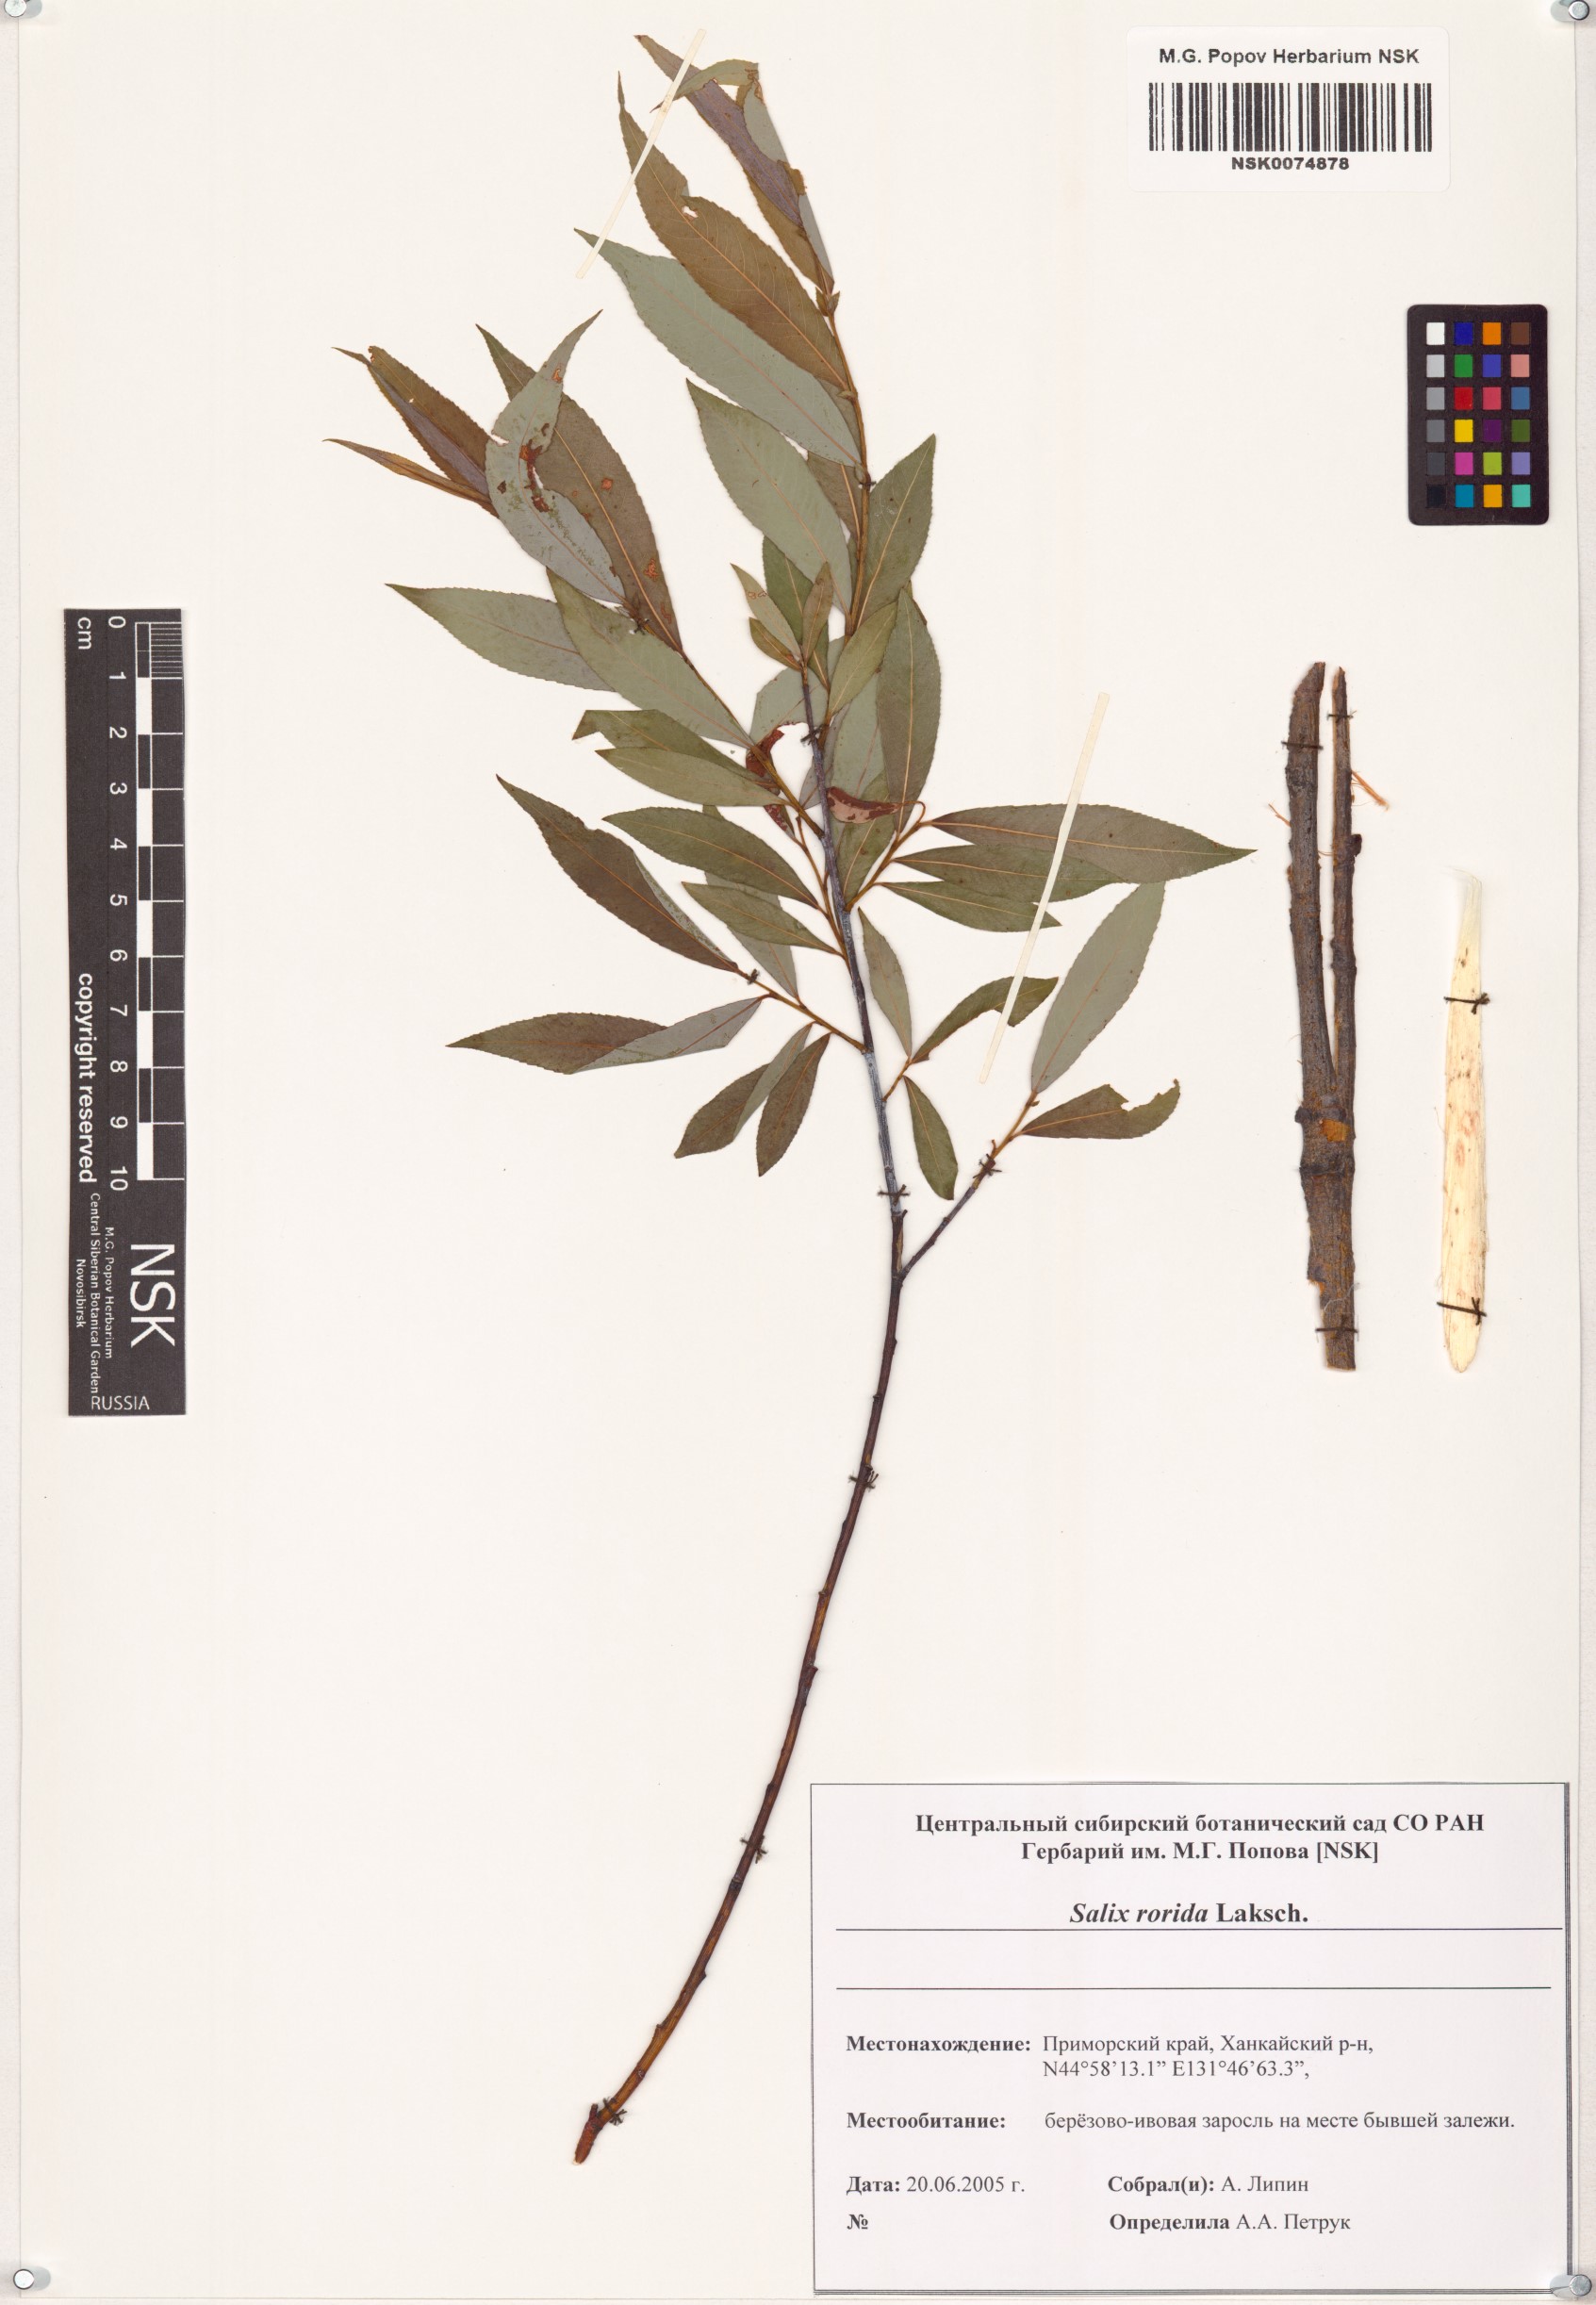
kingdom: Plantae
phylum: Tracheophyta
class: Magnoliopsida
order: Malpighiales
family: Salicaceae
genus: Salix
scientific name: Salix rorida
